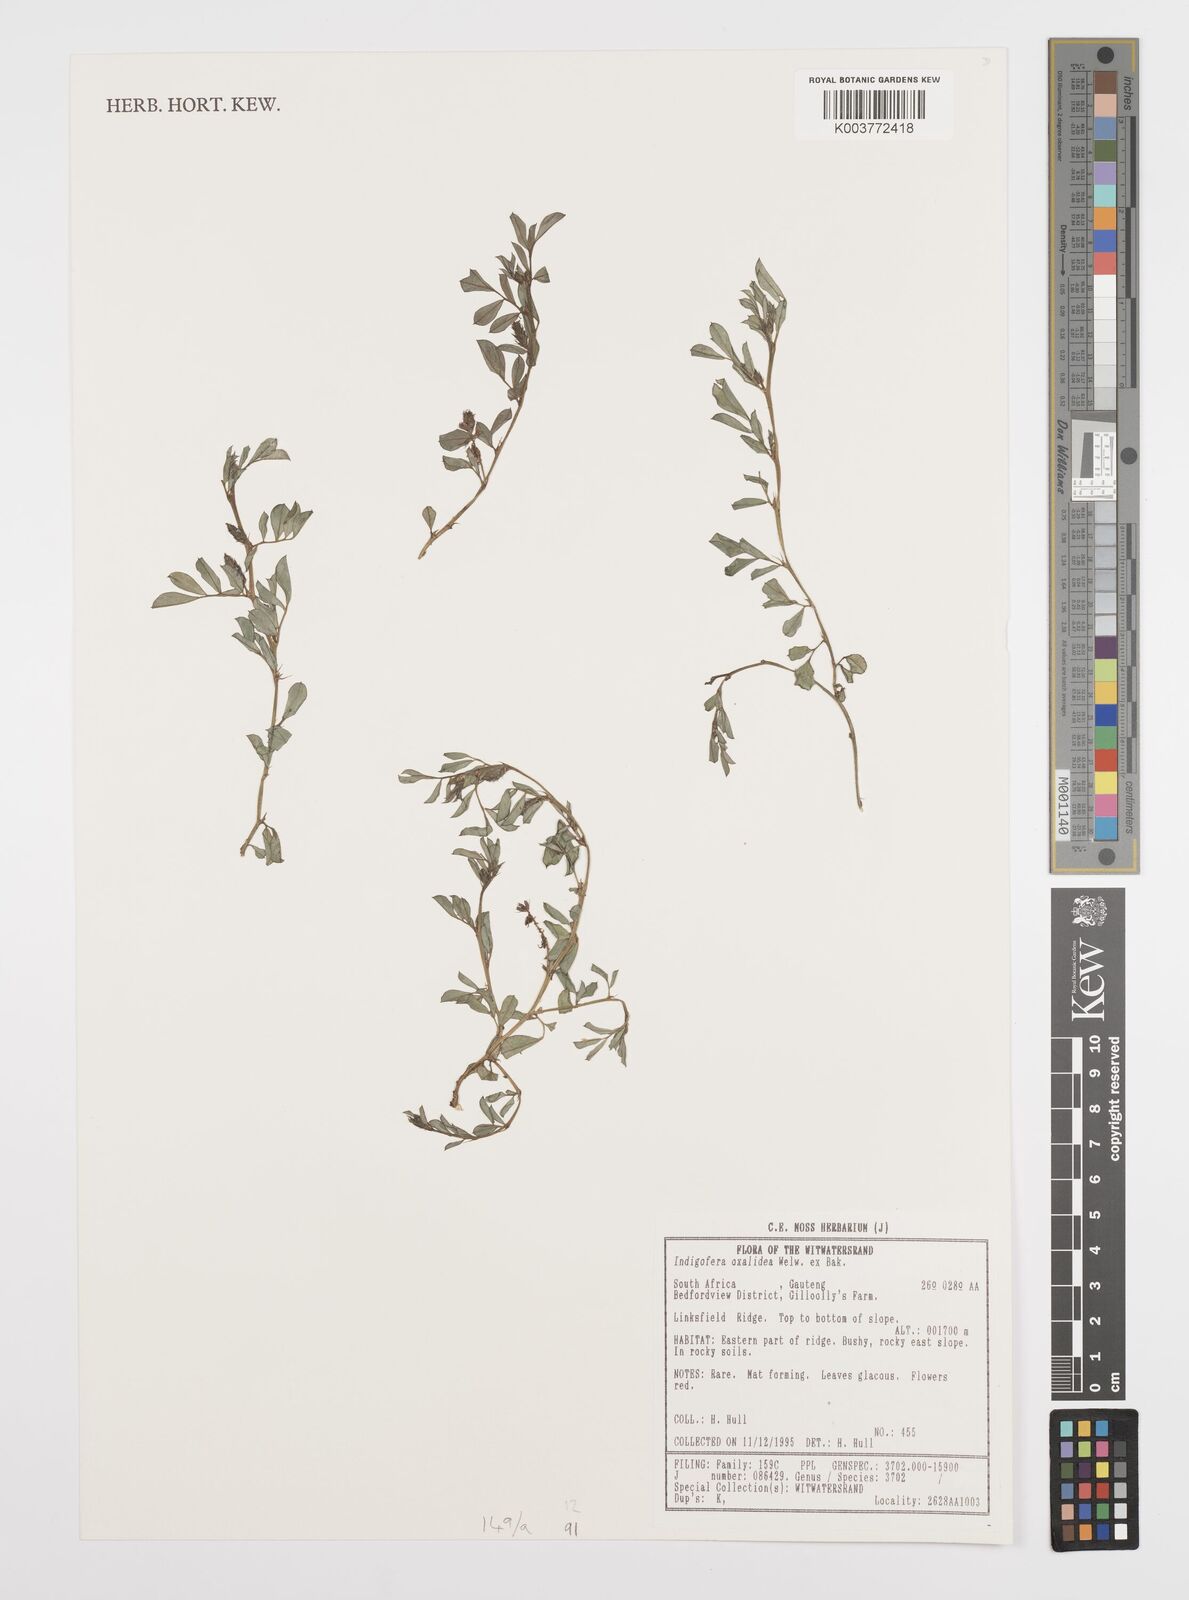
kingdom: Plantae
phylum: Tracheophyta
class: Magnoliopsida
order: Fabales
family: Fabaceae
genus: Indigofera
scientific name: Indigofera oxalidea
